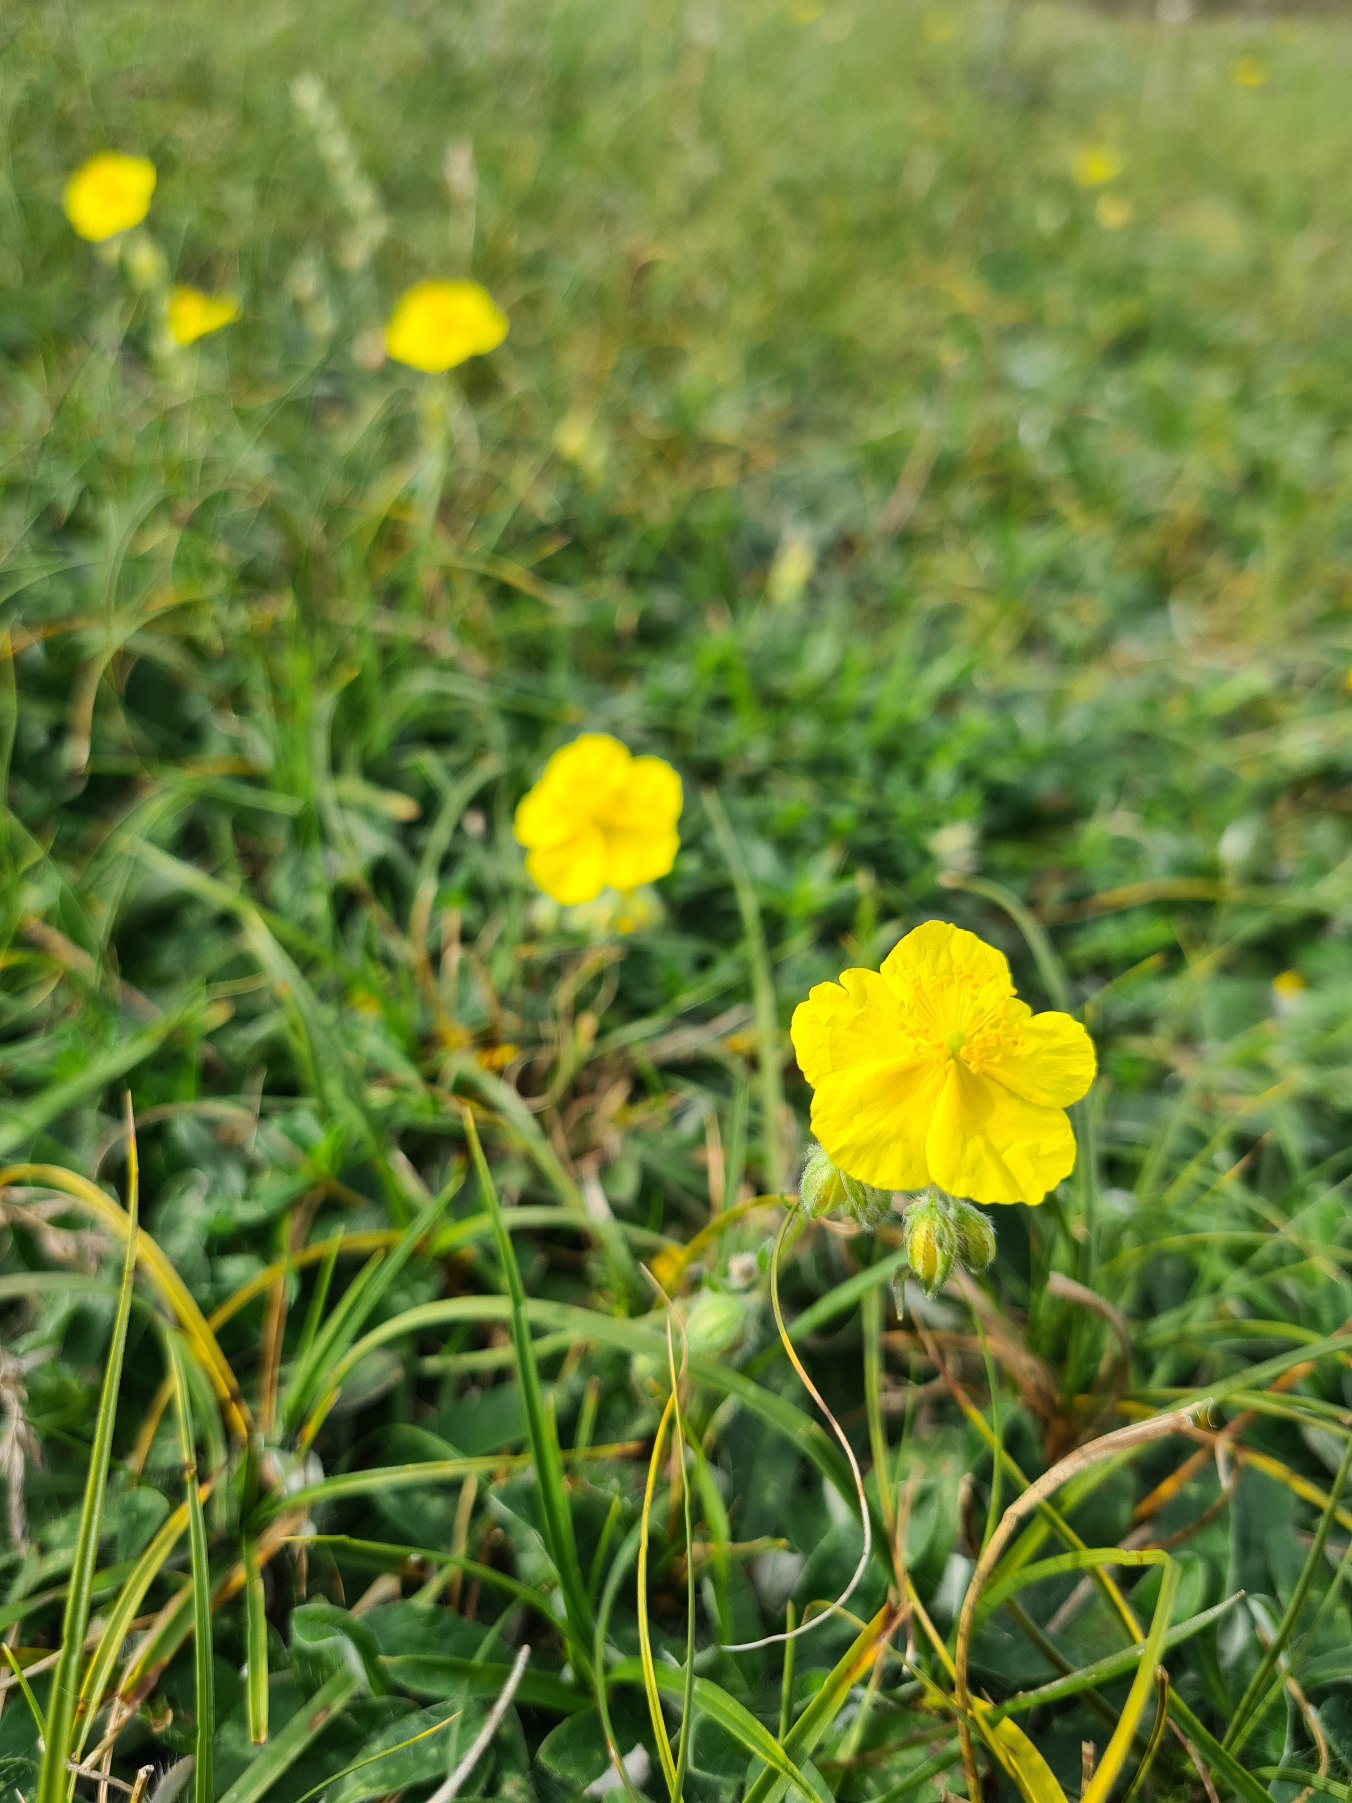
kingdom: Plantae
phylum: Tracheophyta
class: Magnoliopsida
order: Malvales
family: Cistaceae
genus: Helianthemum
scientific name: Helianthemum nummularium
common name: Bakke-soløje
